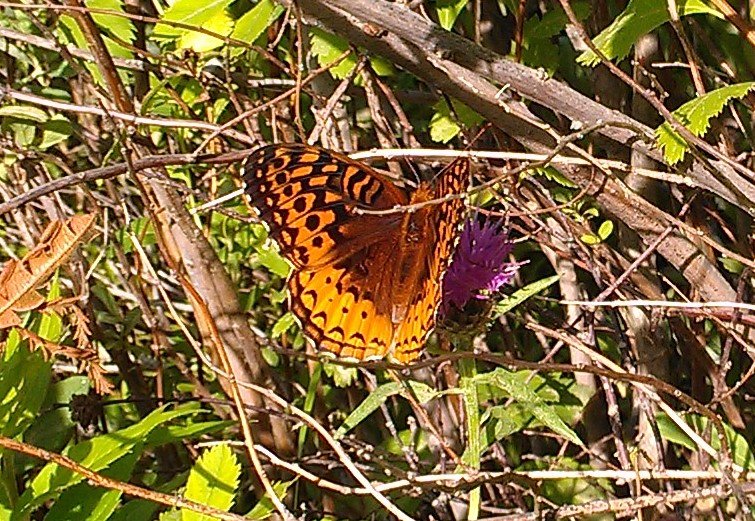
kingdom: Animalia
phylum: Arthropoda
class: Insecta
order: Lepidoptera
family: Nymphalidae
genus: Speyeria
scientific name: Speyeria cybele
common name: Great Spangled Fritillary
